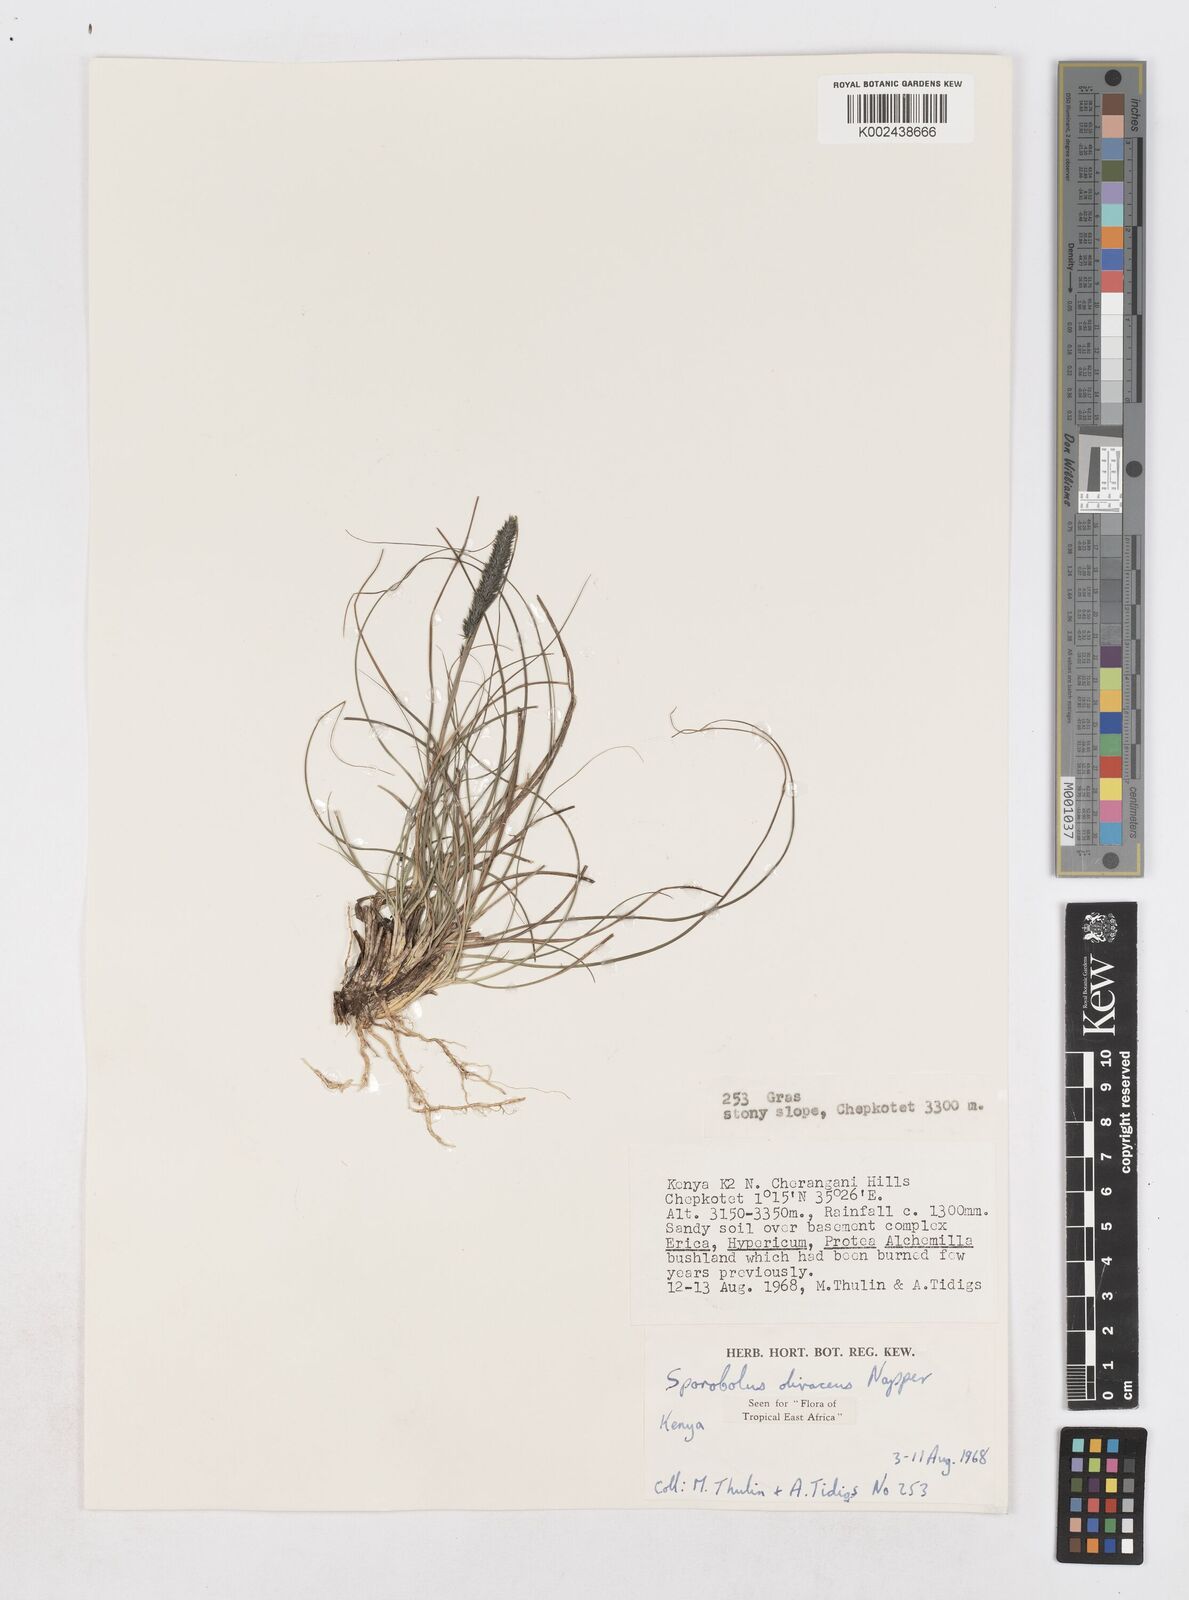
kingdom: Plantae
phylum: Tracheophyta
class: Liliopsida
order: Poales
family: Poaceae
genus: Sporobolus
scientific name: Sporobolus olivaceus
